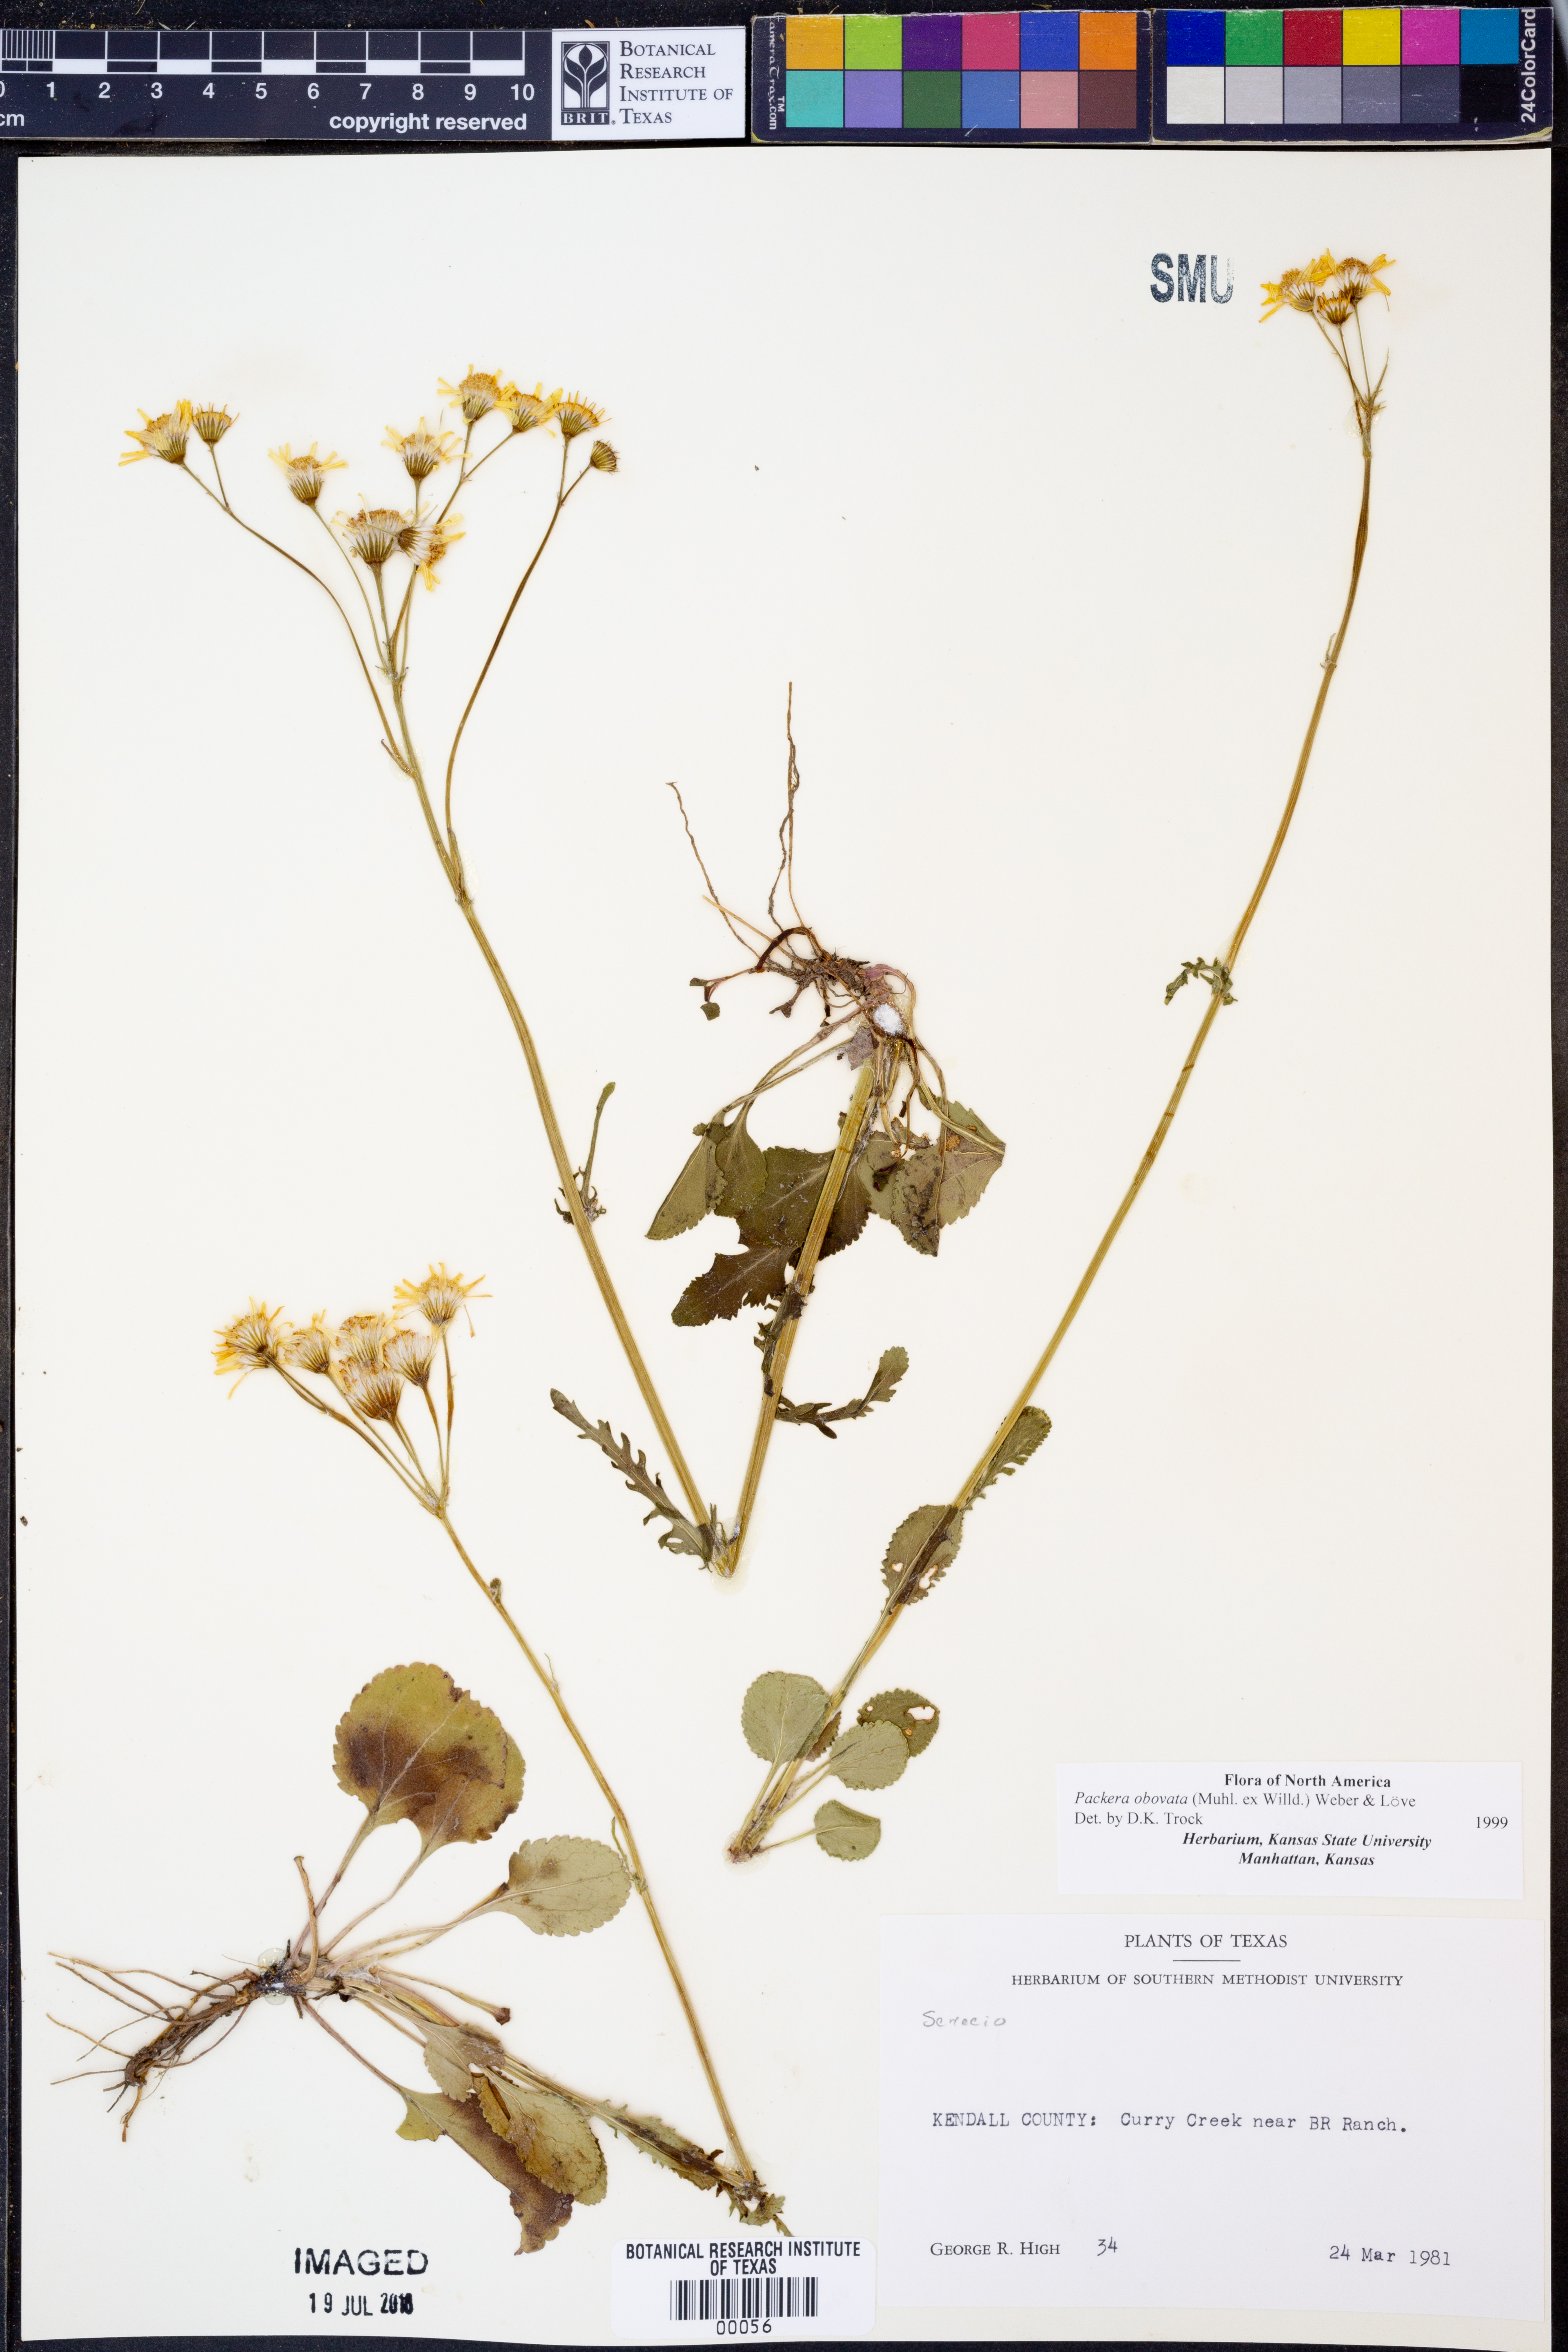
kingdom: Plantae
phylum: Tracheophyta
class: Magnoliopsida
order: Asterales
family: Asteraceae
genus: Packera
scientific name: Packera obovata
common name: Round-leaf ragwort
